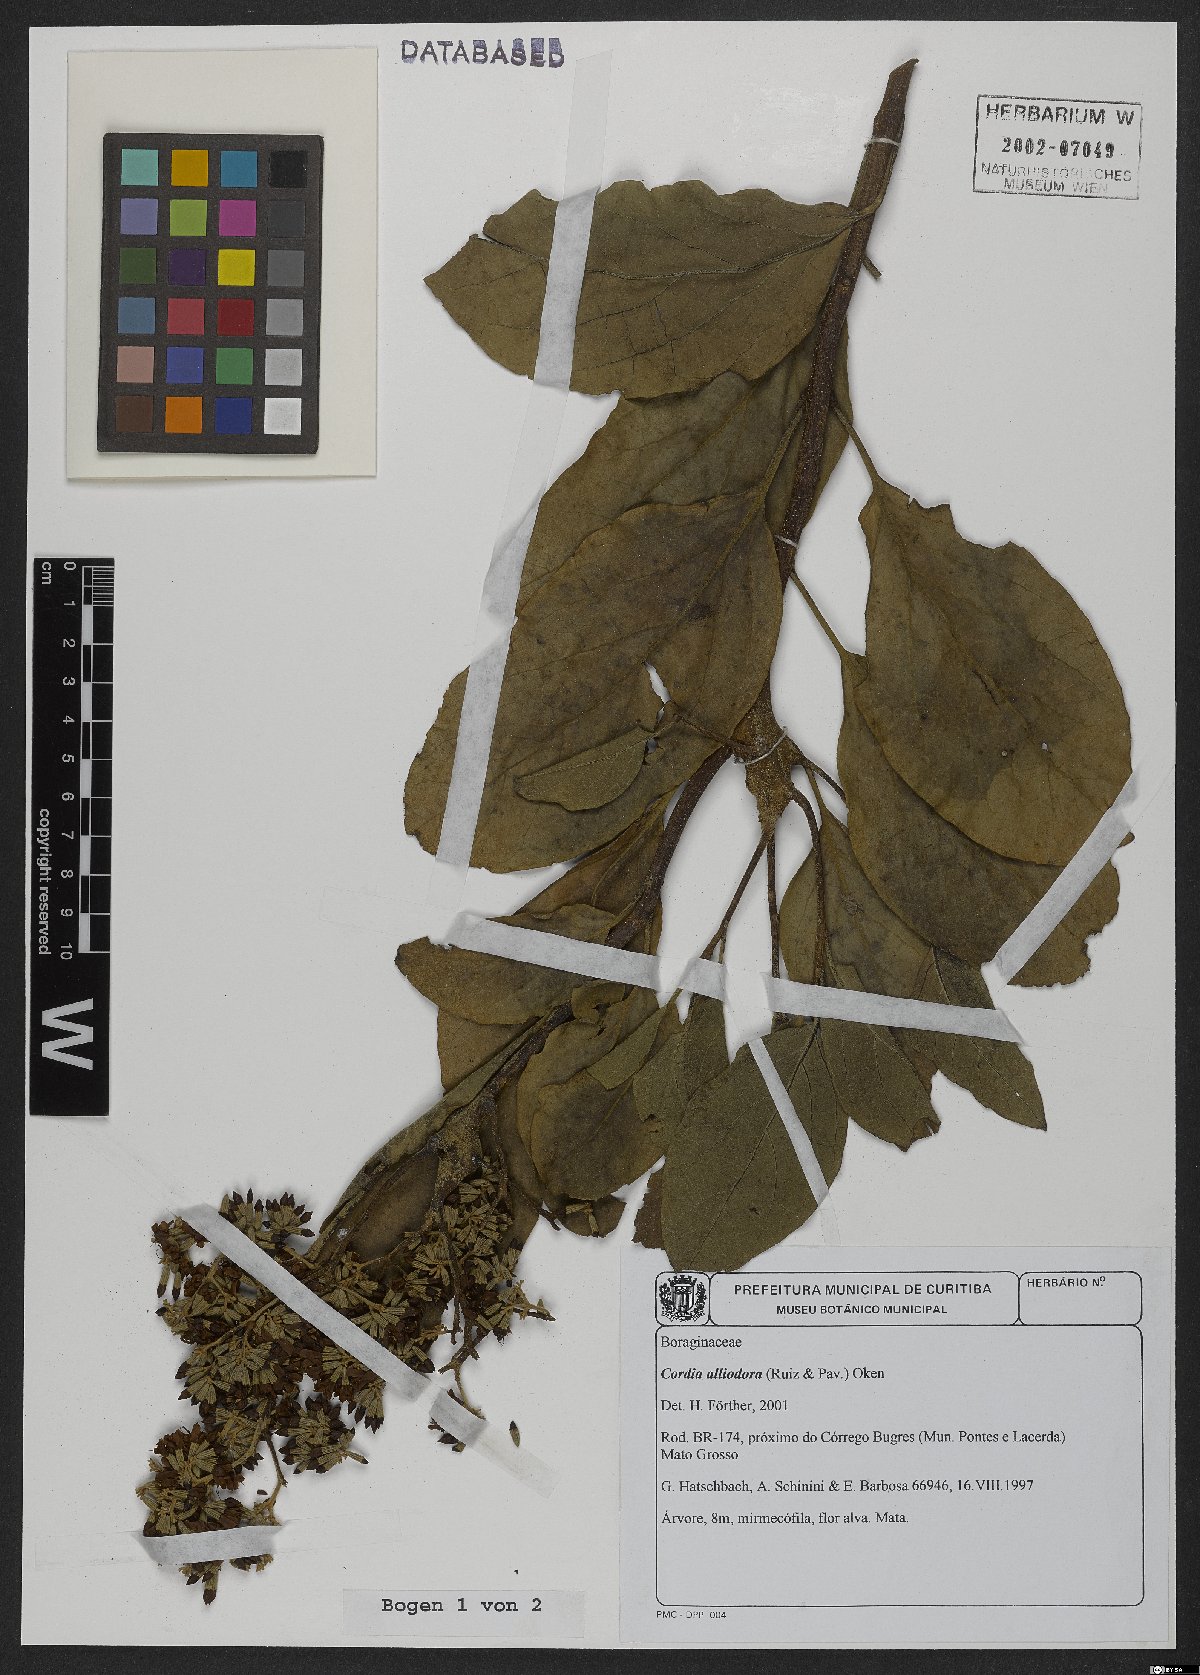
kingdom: Plantae
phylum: Tracheophyta
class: Magnoliopsida
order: Boraginales
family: Cordiaceae
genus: Cordia
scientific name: Cordia alliodora
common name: Spanish elm
